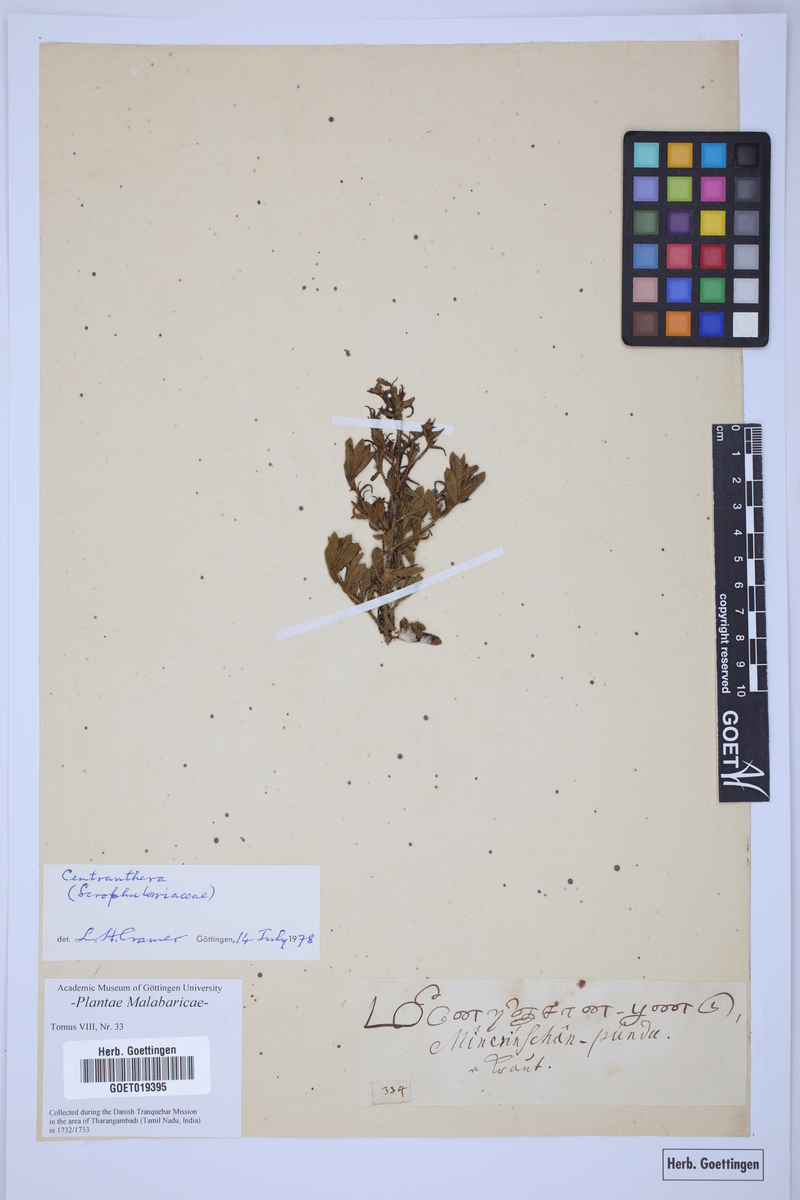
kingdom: Plantae
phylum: Tracheophyta
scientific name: Tracheophyta
